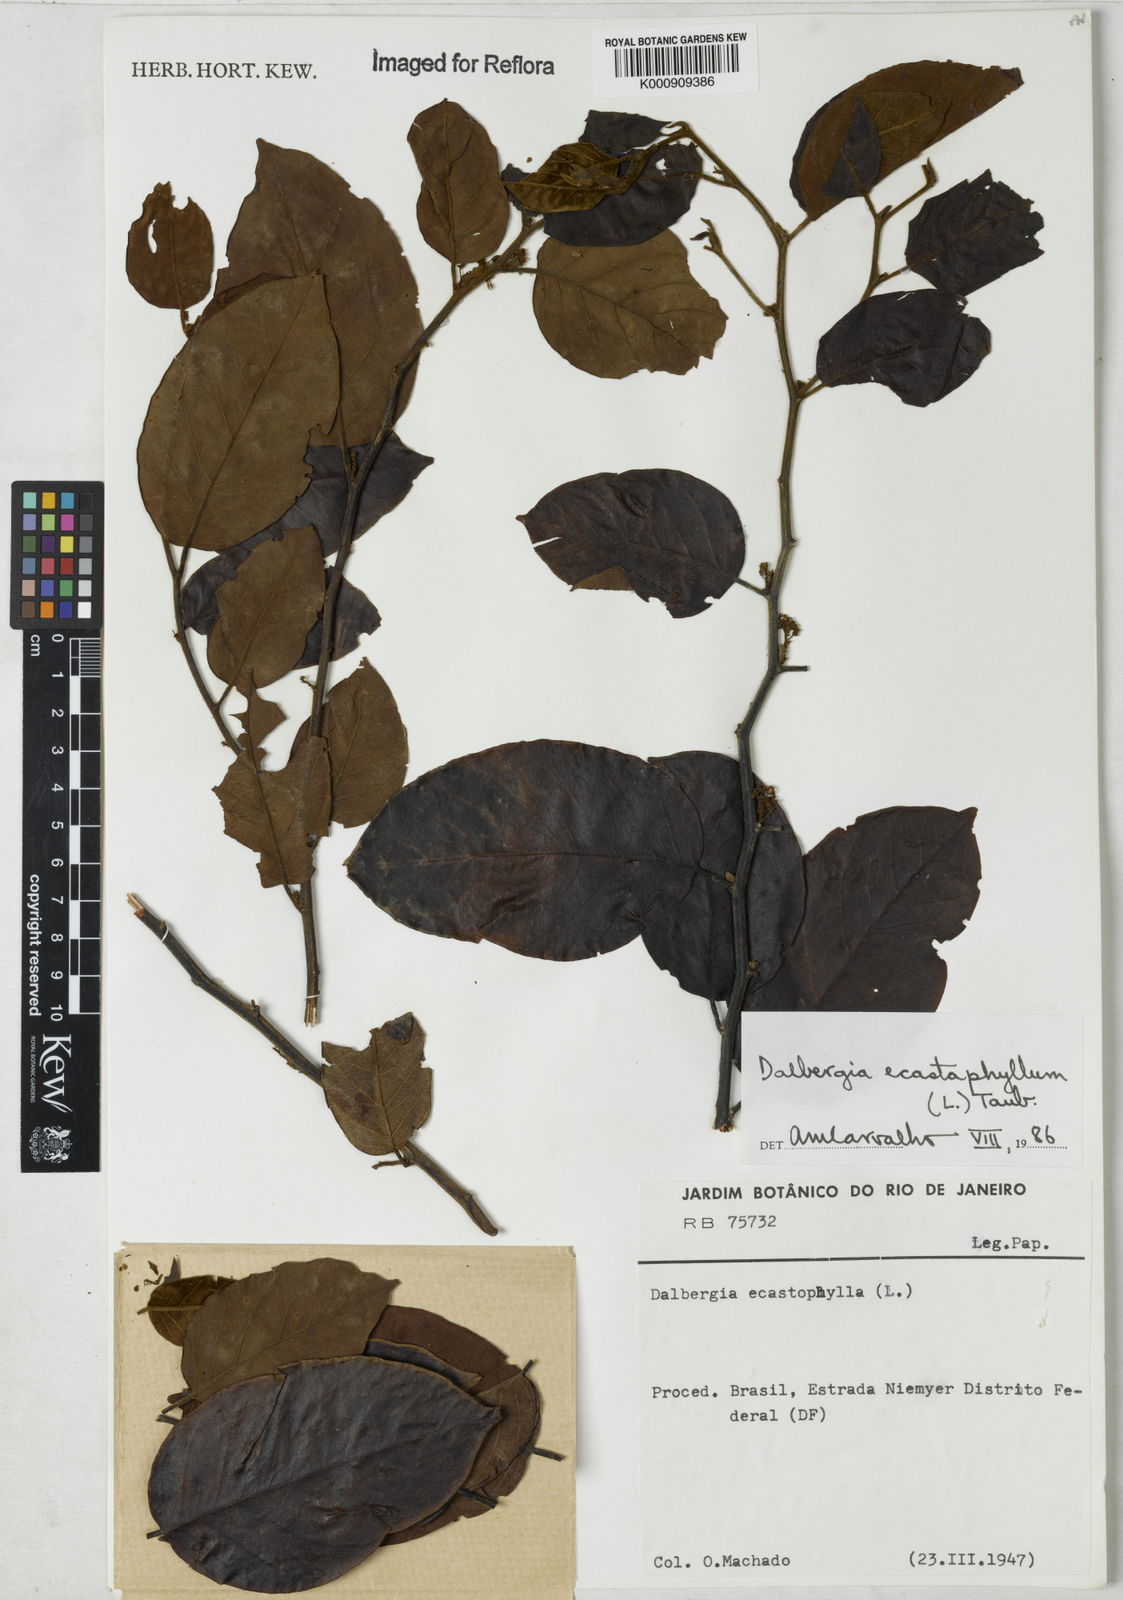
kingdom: Plantae
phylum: Tracheophyta
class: Magnoliopsida
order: Fabales
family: Fabaceae
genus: Dalbergia
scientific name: Dalbergia ecastaphyllum
